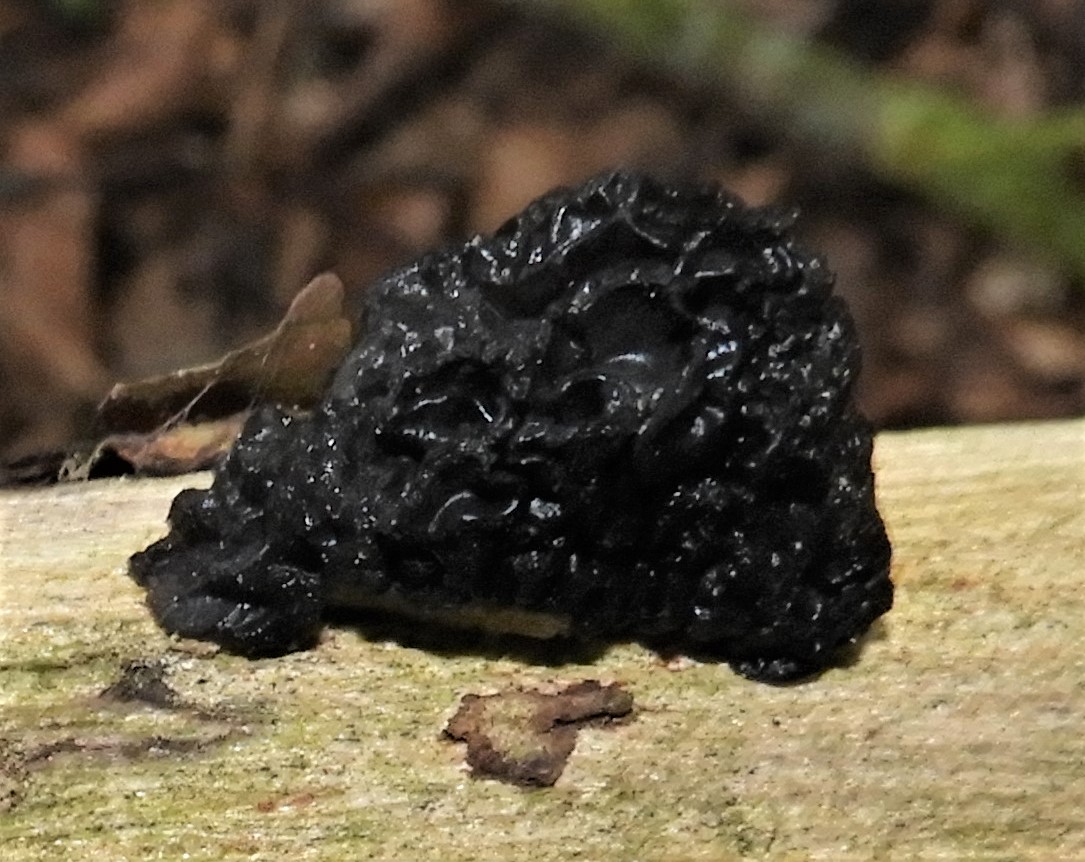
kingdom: Fungi
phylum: Basidiomycota
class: Agaricomycetes
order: Auriculariales
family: Auriculariaceae
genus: Exidia
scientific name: Exidia glandulosa
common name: ege-bævretop
